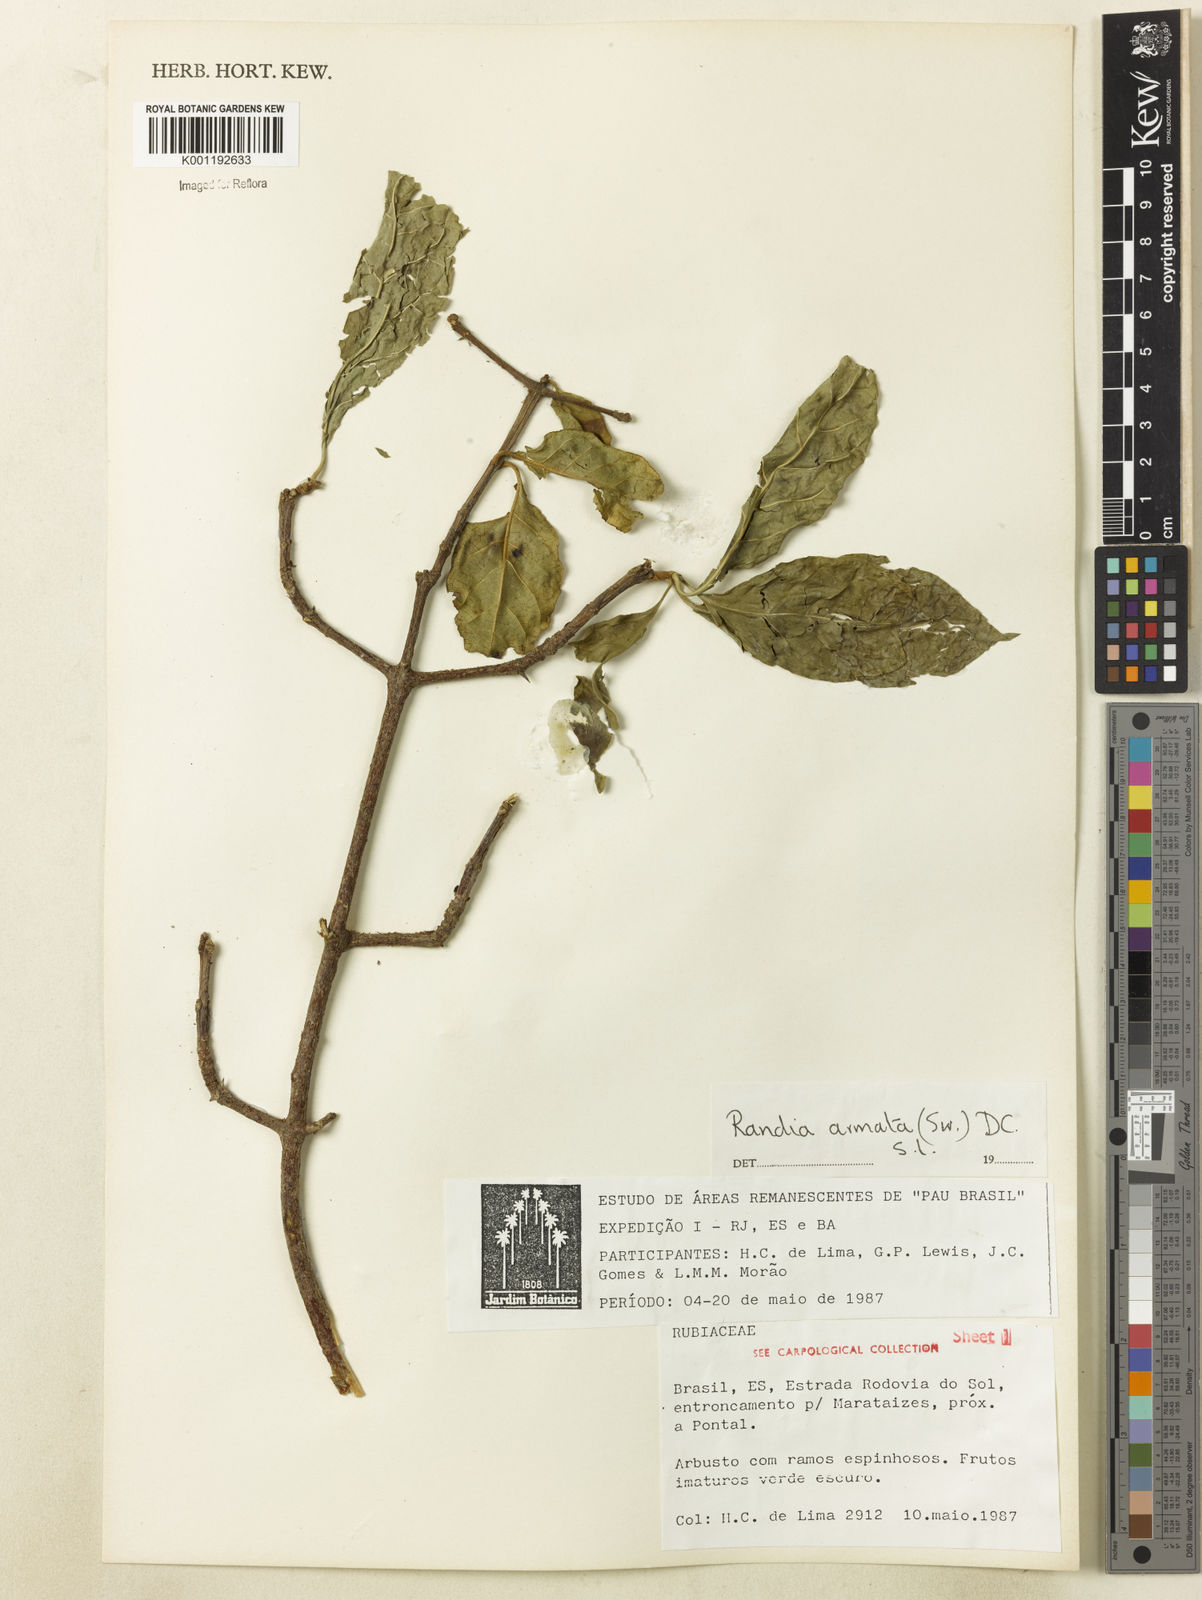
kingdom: Plantae
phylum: Tracheophyta
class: Magnoliopsida
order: Gentianales
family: Rubiaceae
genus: Randia
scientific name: Randia armata
